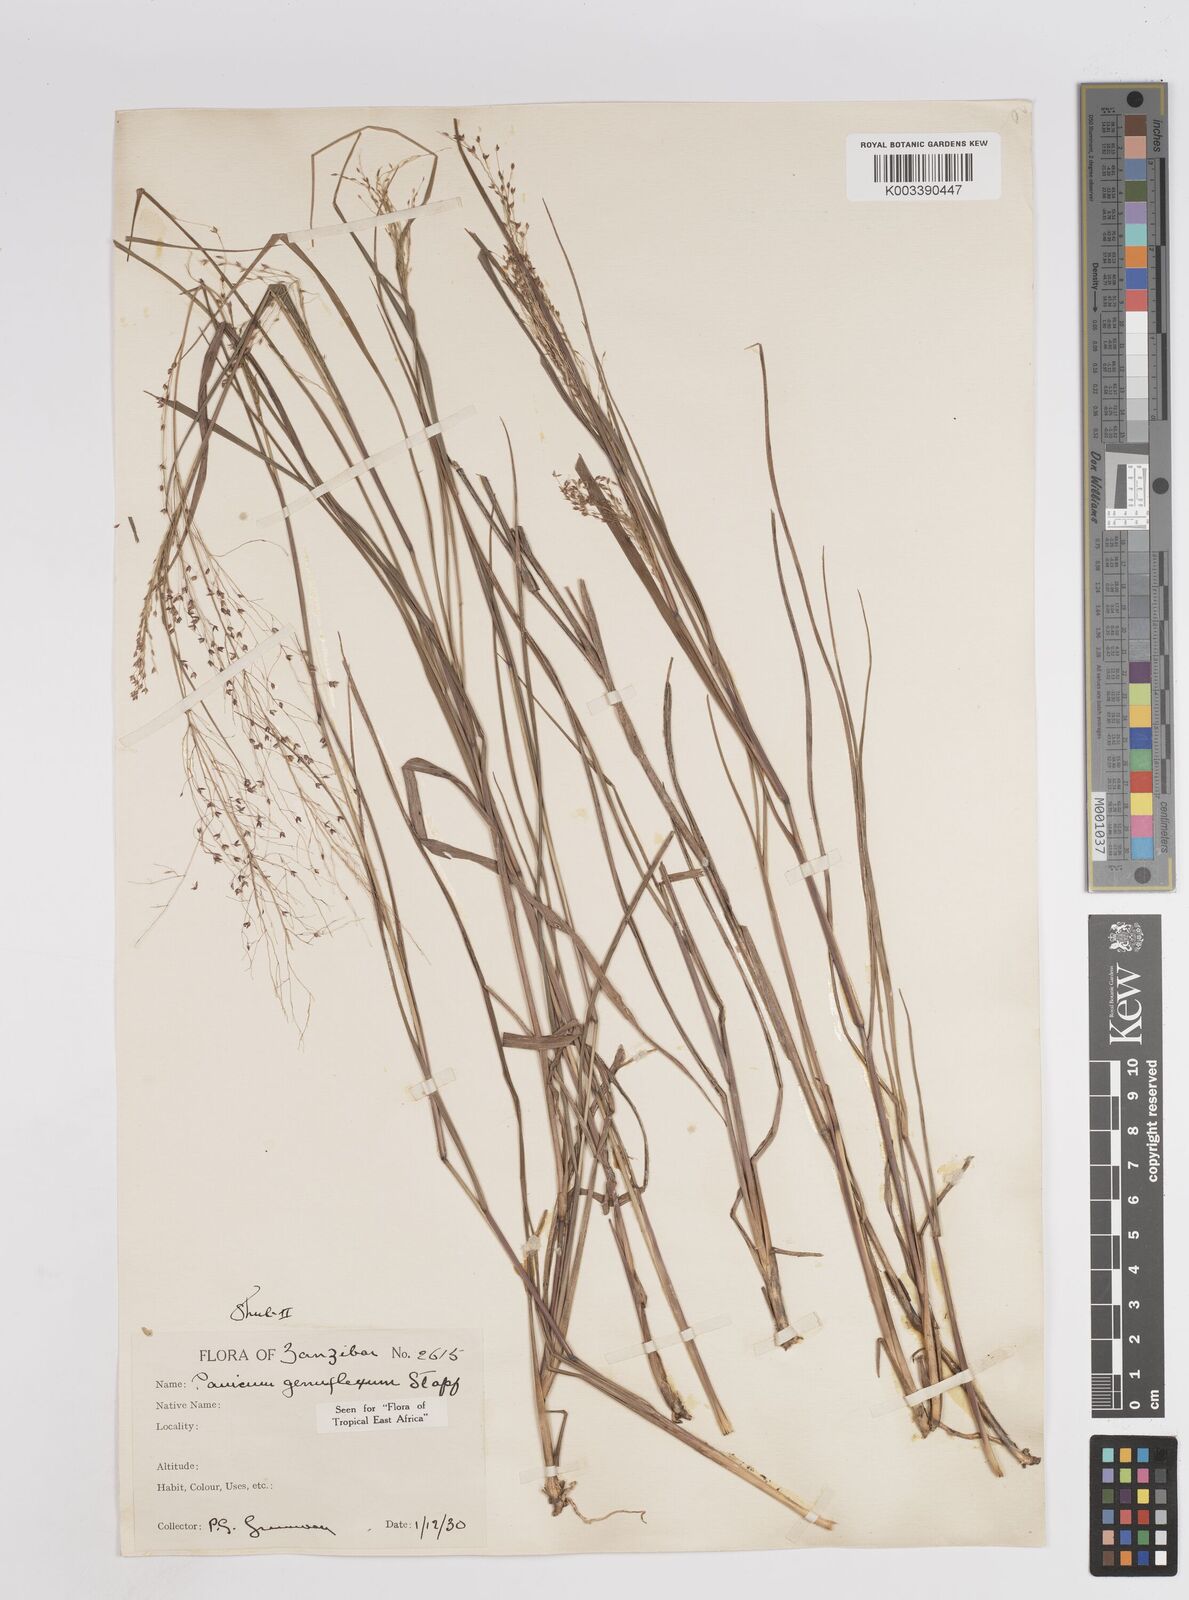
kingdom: Plantae
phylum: Tracheophyta
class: Liliopsida
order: Poales
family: Poaceae
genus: Panicum
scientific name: Panicum genuflexum
